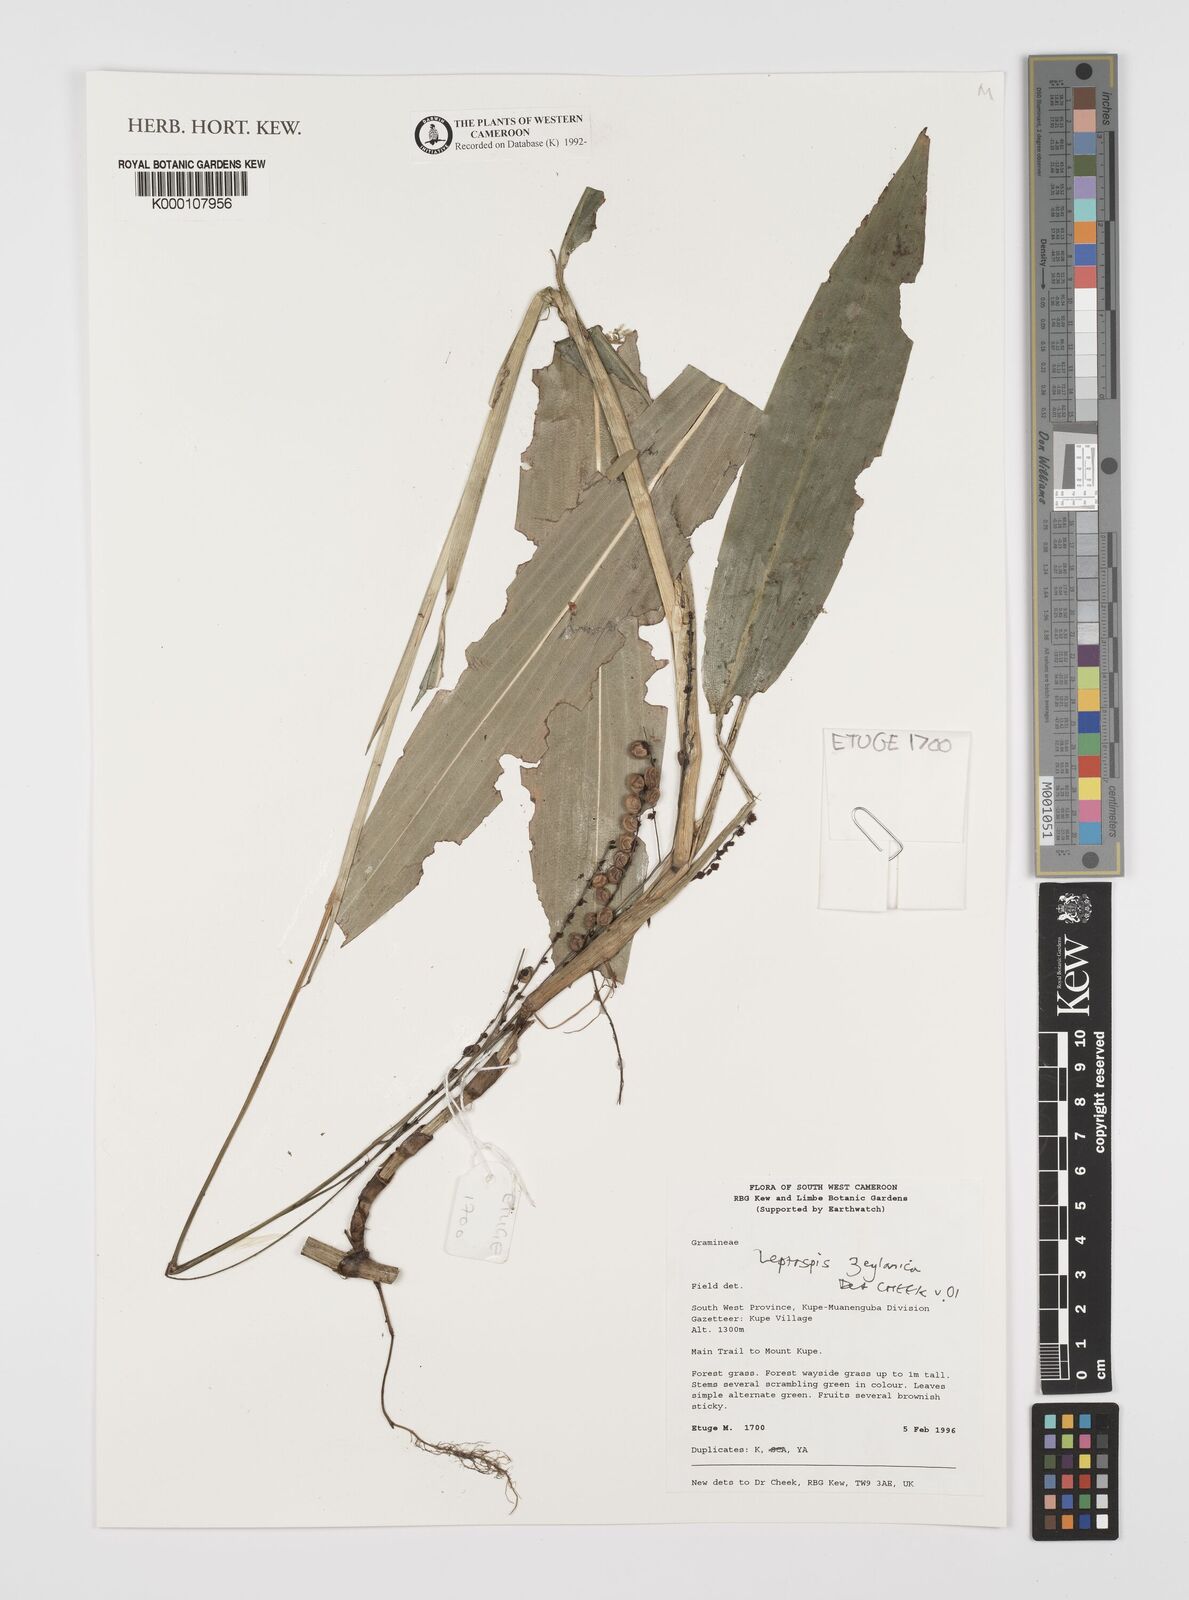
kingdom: Plantae
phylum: Tracheophyta
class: Liliopsida
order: Poales
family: Poaceae
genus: Leptaspis
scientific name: Leptaspis zeylanica
